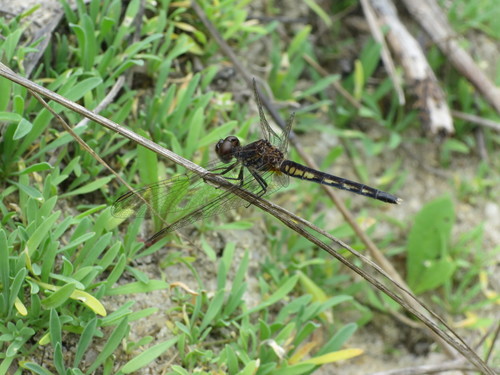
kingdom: Animalia
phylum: Arthropoda
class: Insecta
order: Odonata
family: Libellulidae
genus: Diplacodes
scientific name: Diplacodes lefebvrii
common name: Black percher
